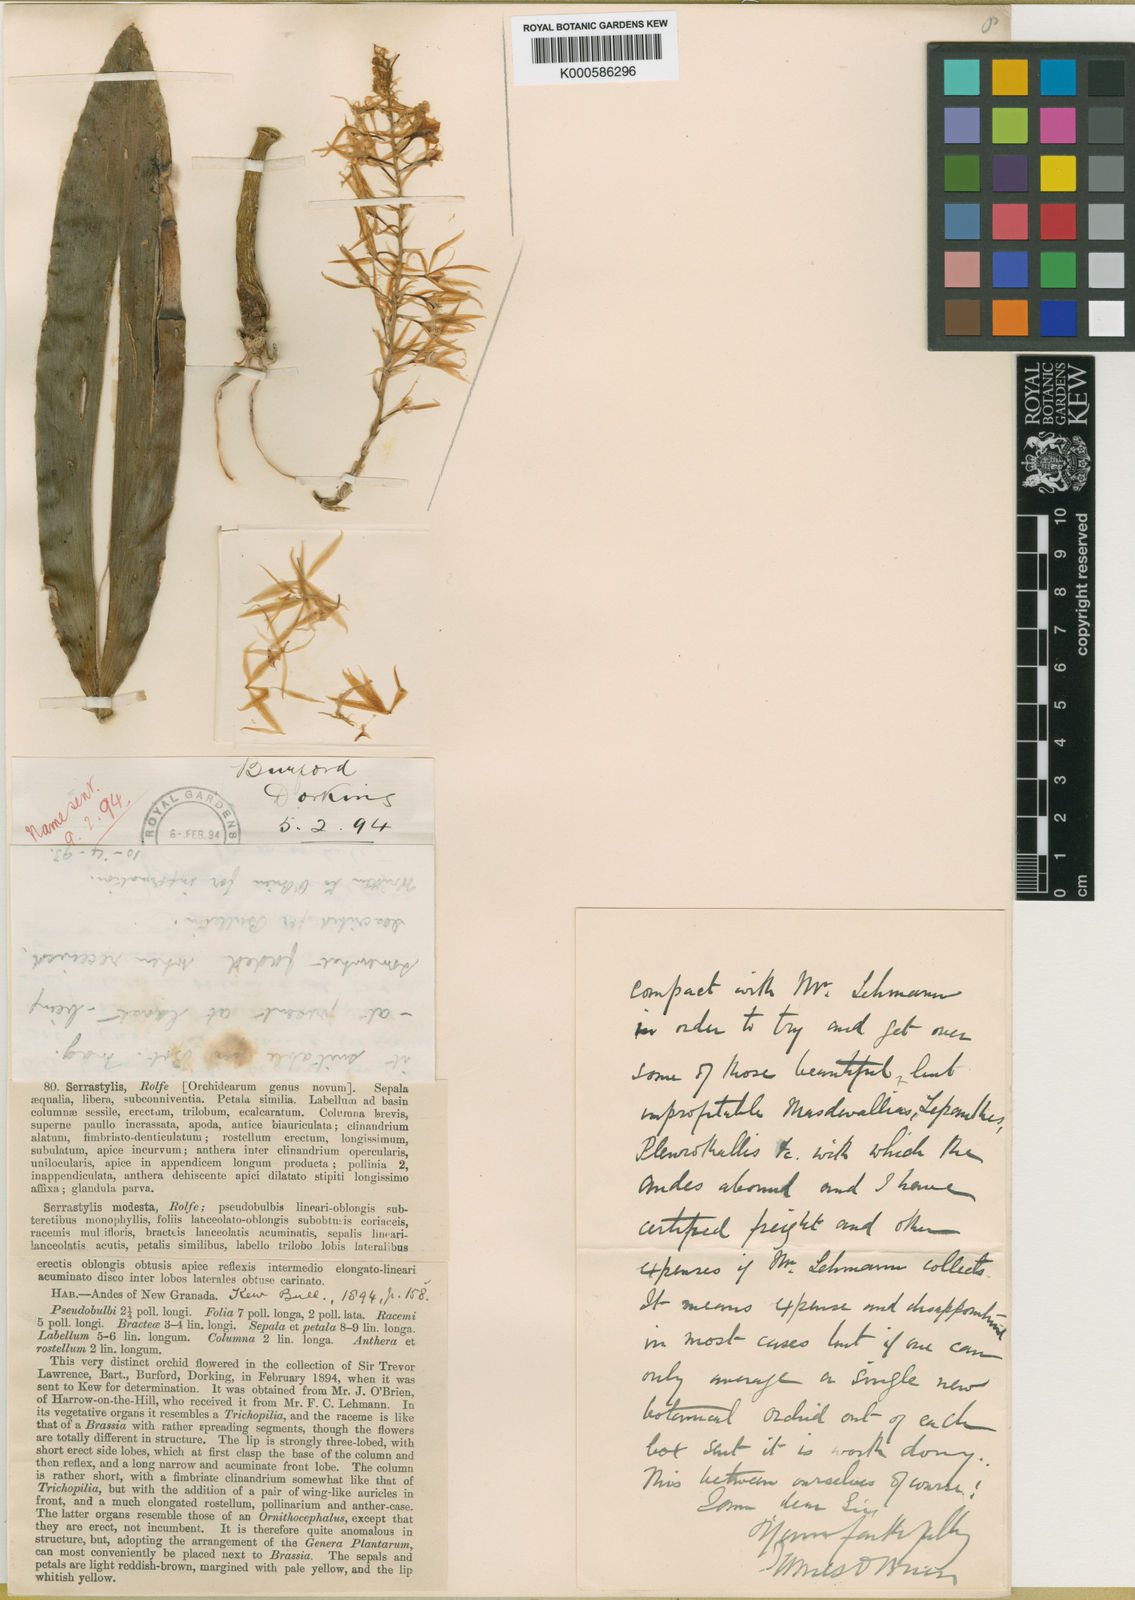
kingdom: Plantae
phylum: Tracheophyta
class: Liliopsida
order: Asparagales
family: Orchidaceae
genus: Macradenia
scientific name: Macradenia brassavolae
